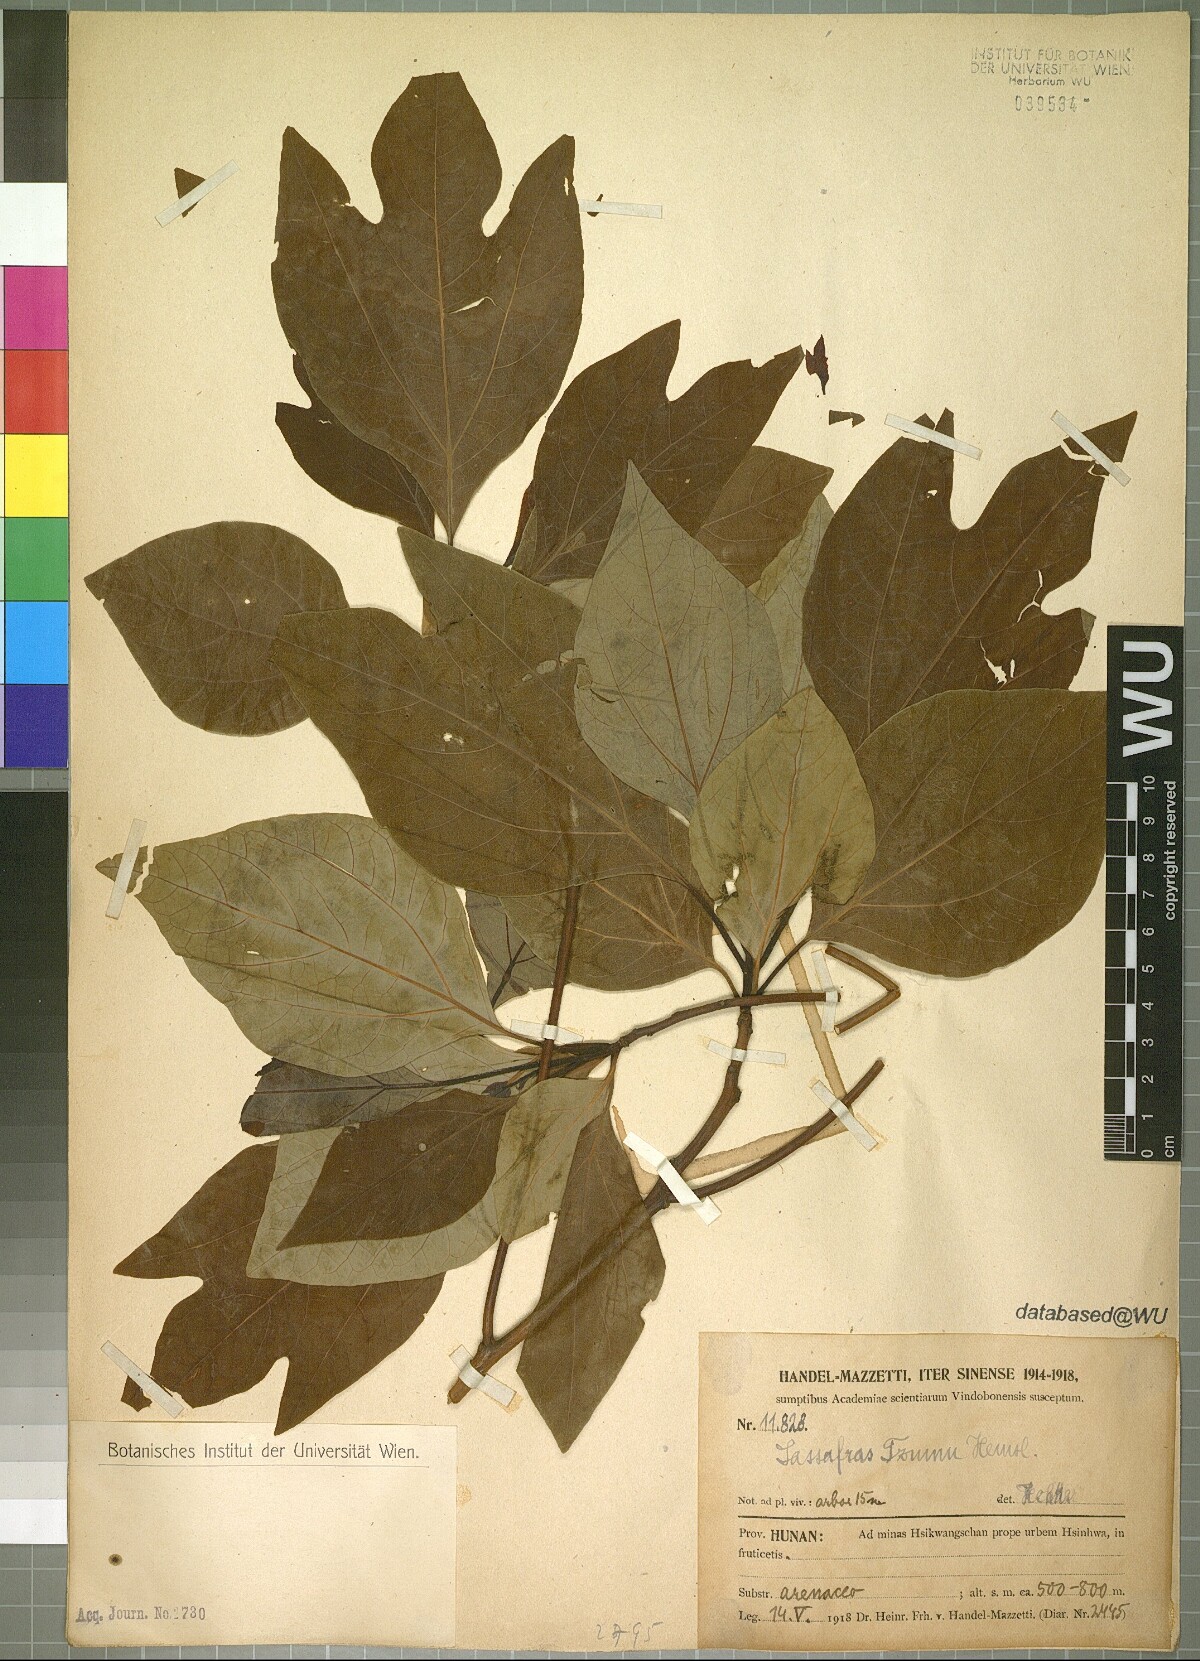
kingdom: Plantae
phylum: Tracheophyta
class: Magnoliopsida
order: Laurales
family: Lauraceae
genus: Sassafras
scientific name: Sassafras tzumu
